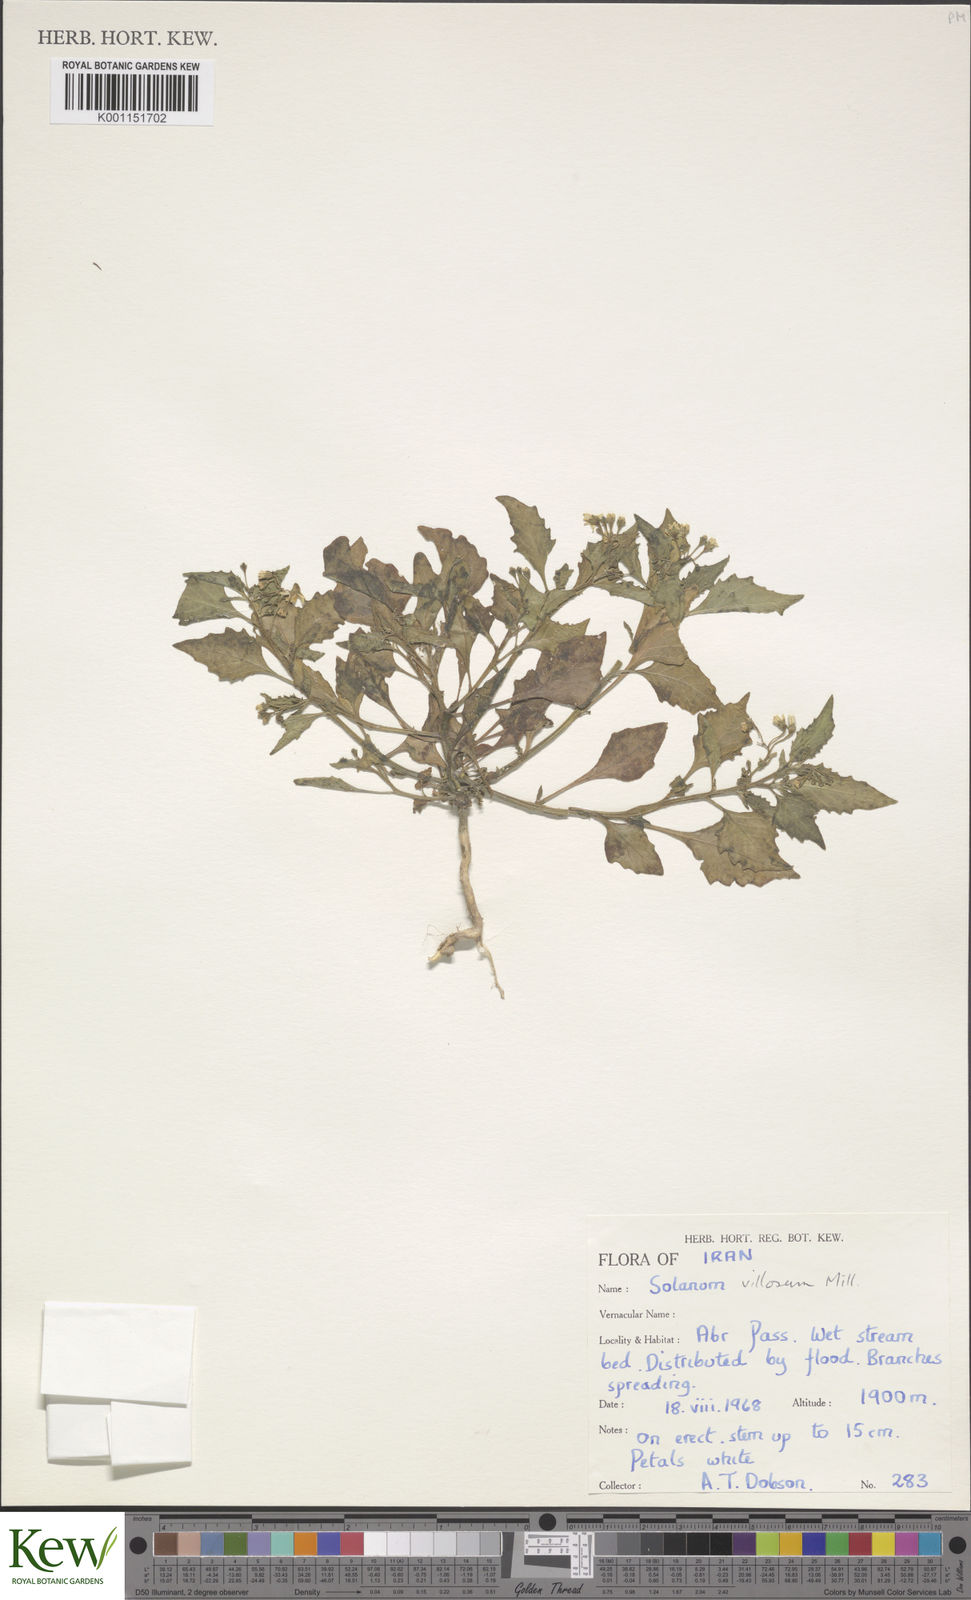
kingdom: Plantae
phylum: Tracheophyta
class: Magnoliopsida
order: Solanales
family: Solanaceae
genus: Solanum
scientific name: Solanum nigrum
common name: Black nightshade
